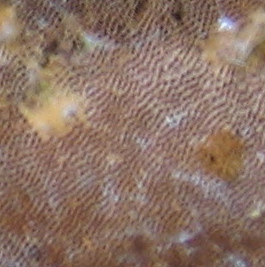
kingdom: Fungi
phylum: Basidiomycota
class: Agaricomycetes
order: Hymenochaetales
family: Hymenochaetaceae
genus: Fuscoporia
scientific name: Fuscoporia ferrea
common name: skorpe-ildporesvamp
